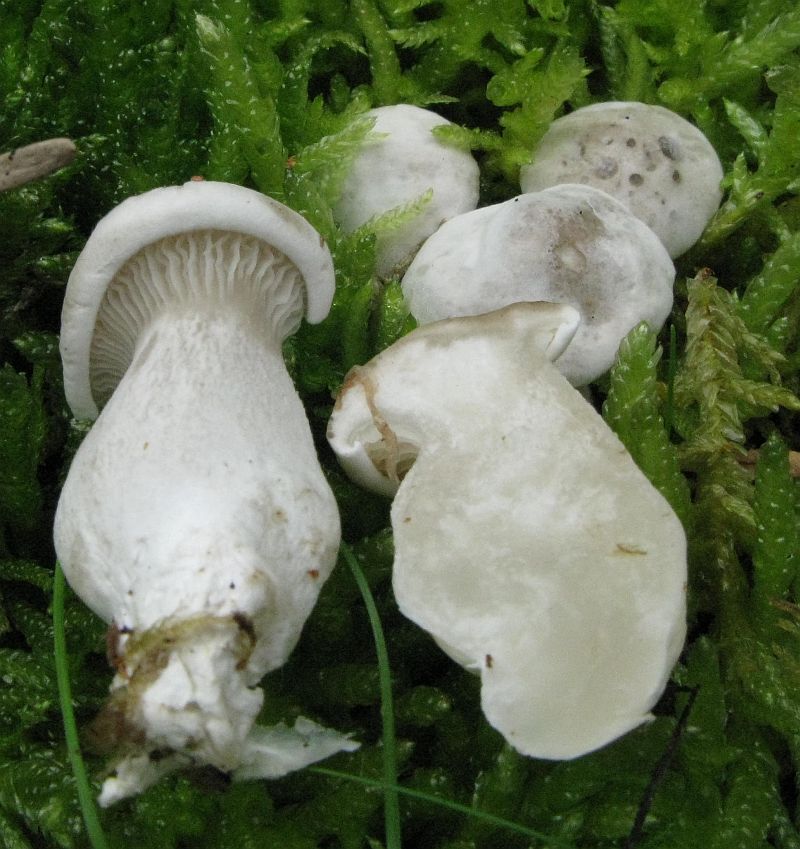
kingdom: Fungi
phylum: Basidiomycota
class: Agaricomycetes
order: Agaricales
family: Entolomataceae
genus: Clitopilus
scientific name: Clitopilus prunulus
